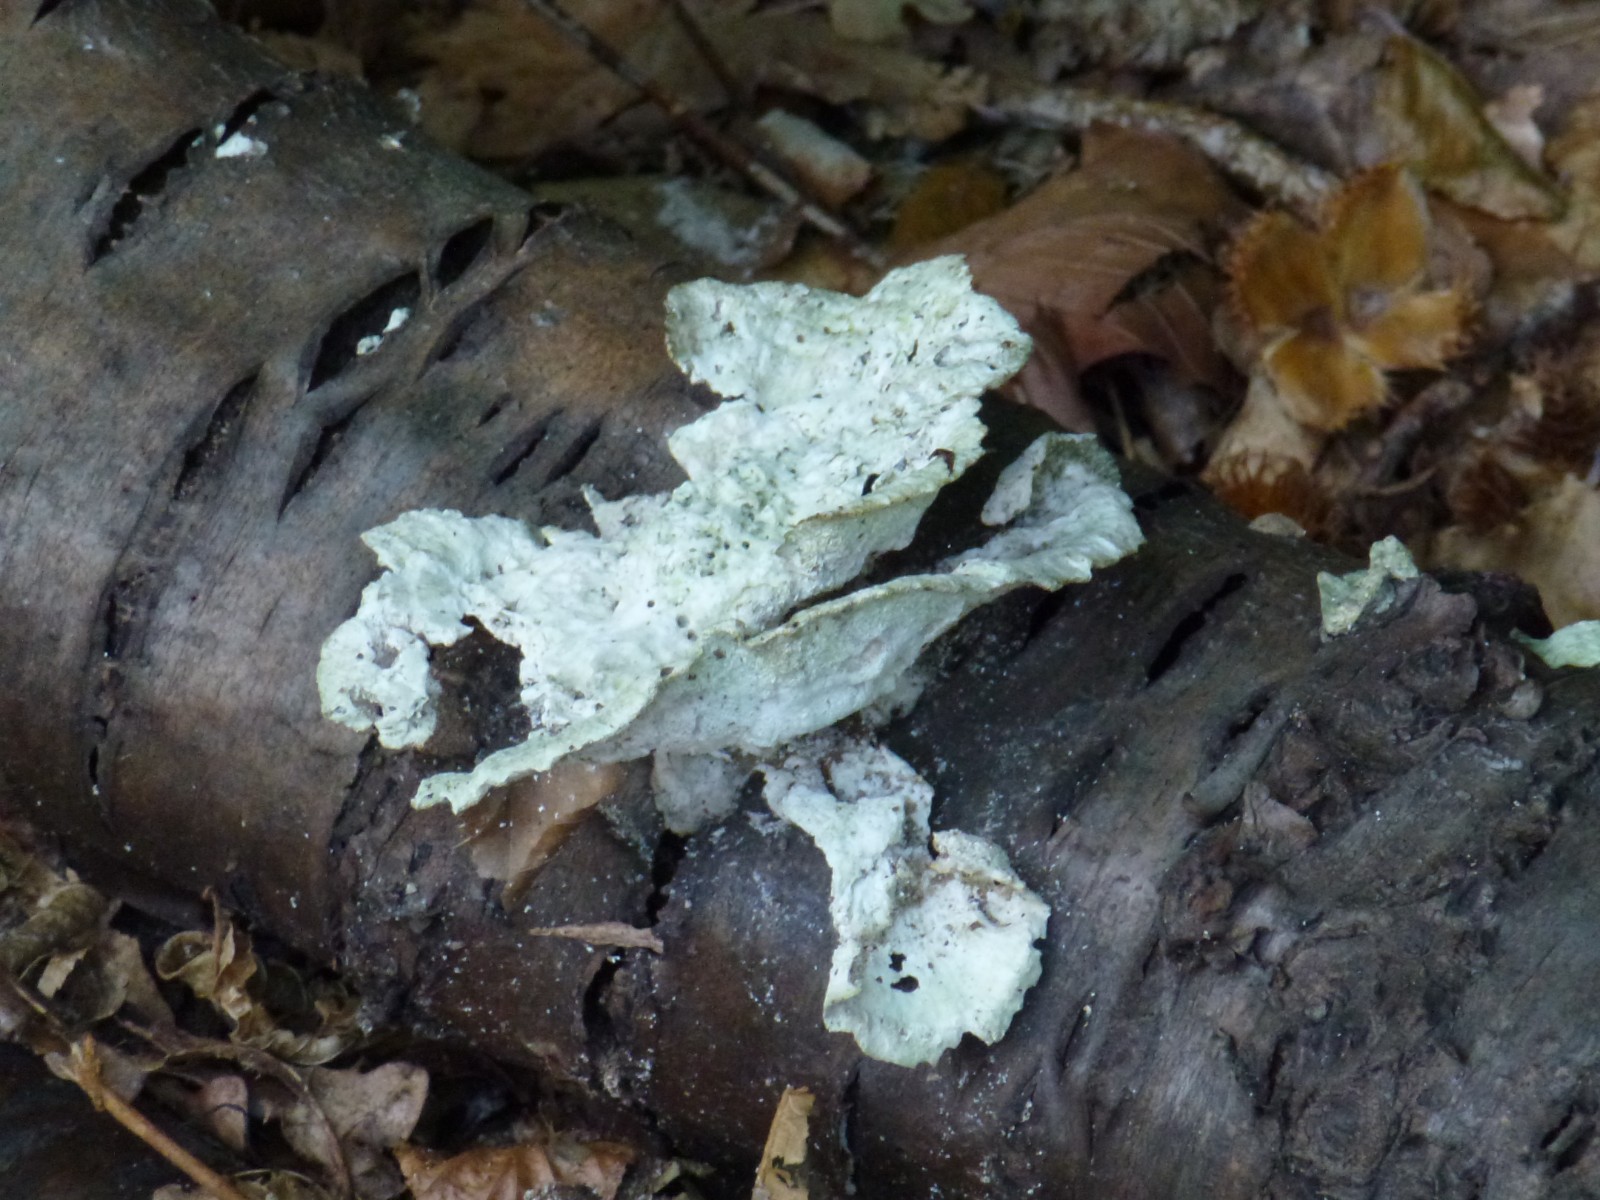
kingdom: Fungi
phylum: Basidiomycota
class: Agaricomycetes
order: Polyporales
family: Polyporaceae
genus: Trametes
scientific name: Trametes
